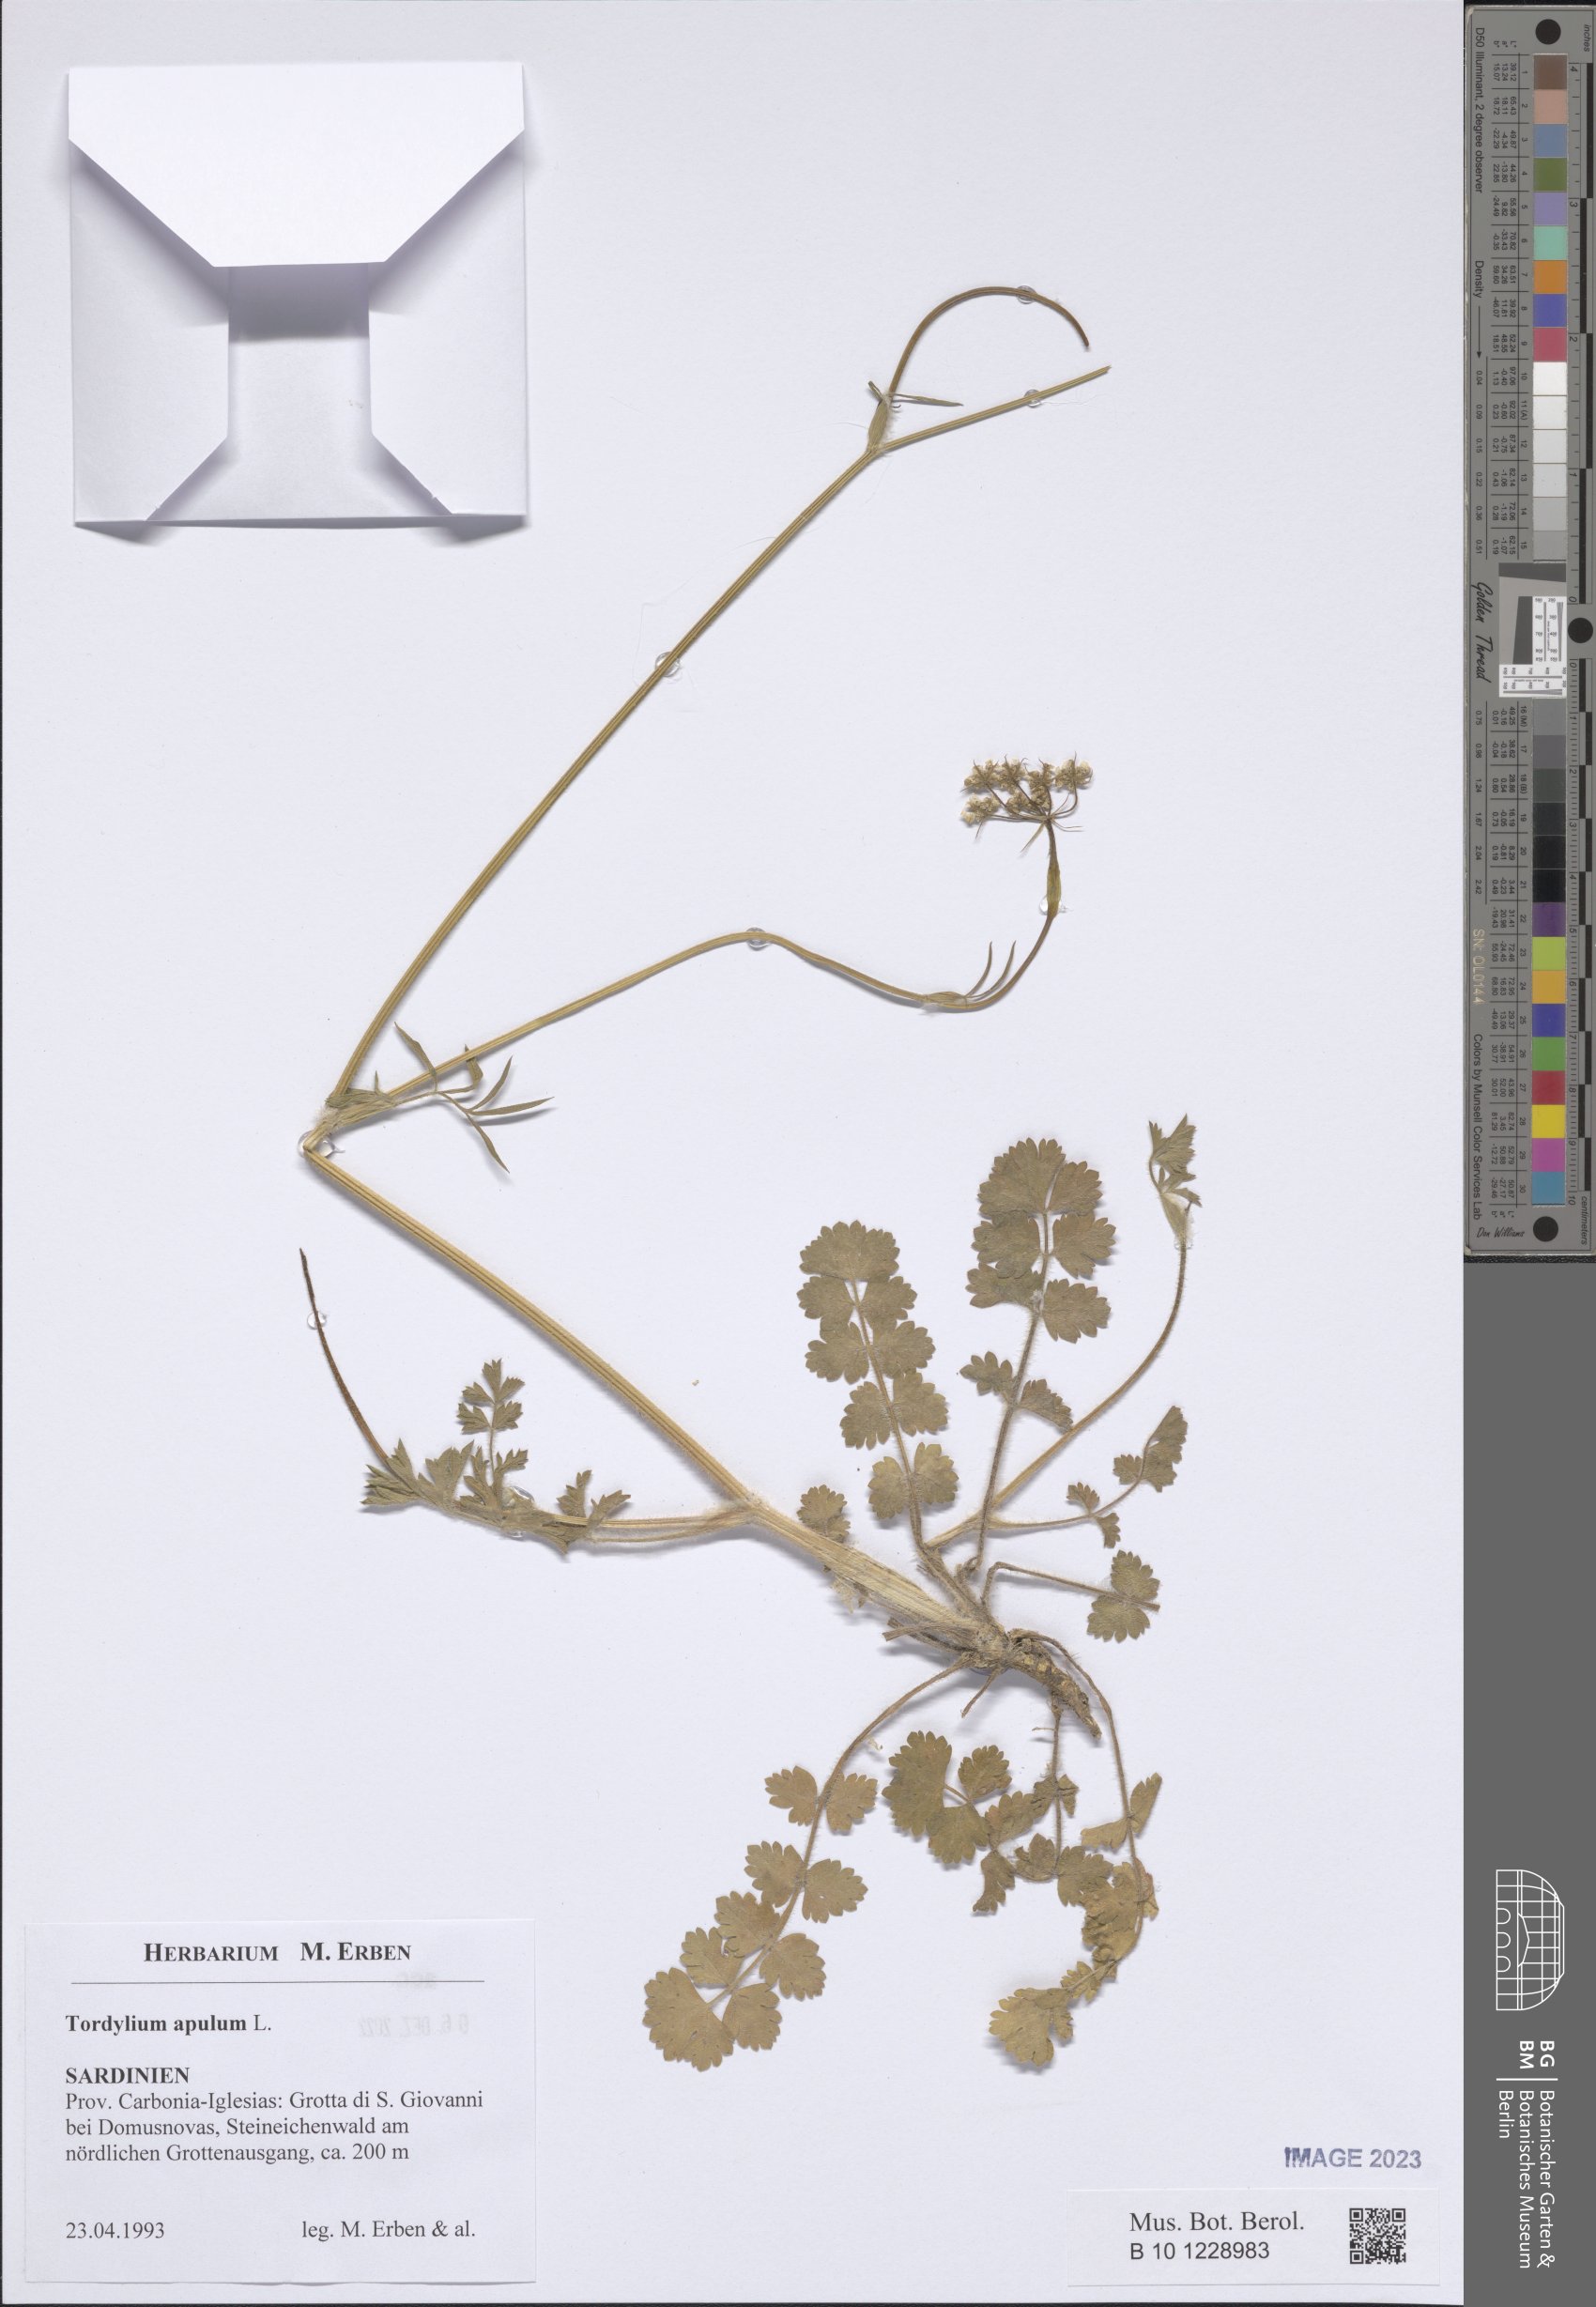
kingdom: Plantae
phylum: Tracheophyta
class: Magnoliopsida
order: Apiales
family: Apiaceae
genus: Tordylium
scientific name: Tordylium apulum
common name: Mediterranean hartwort
